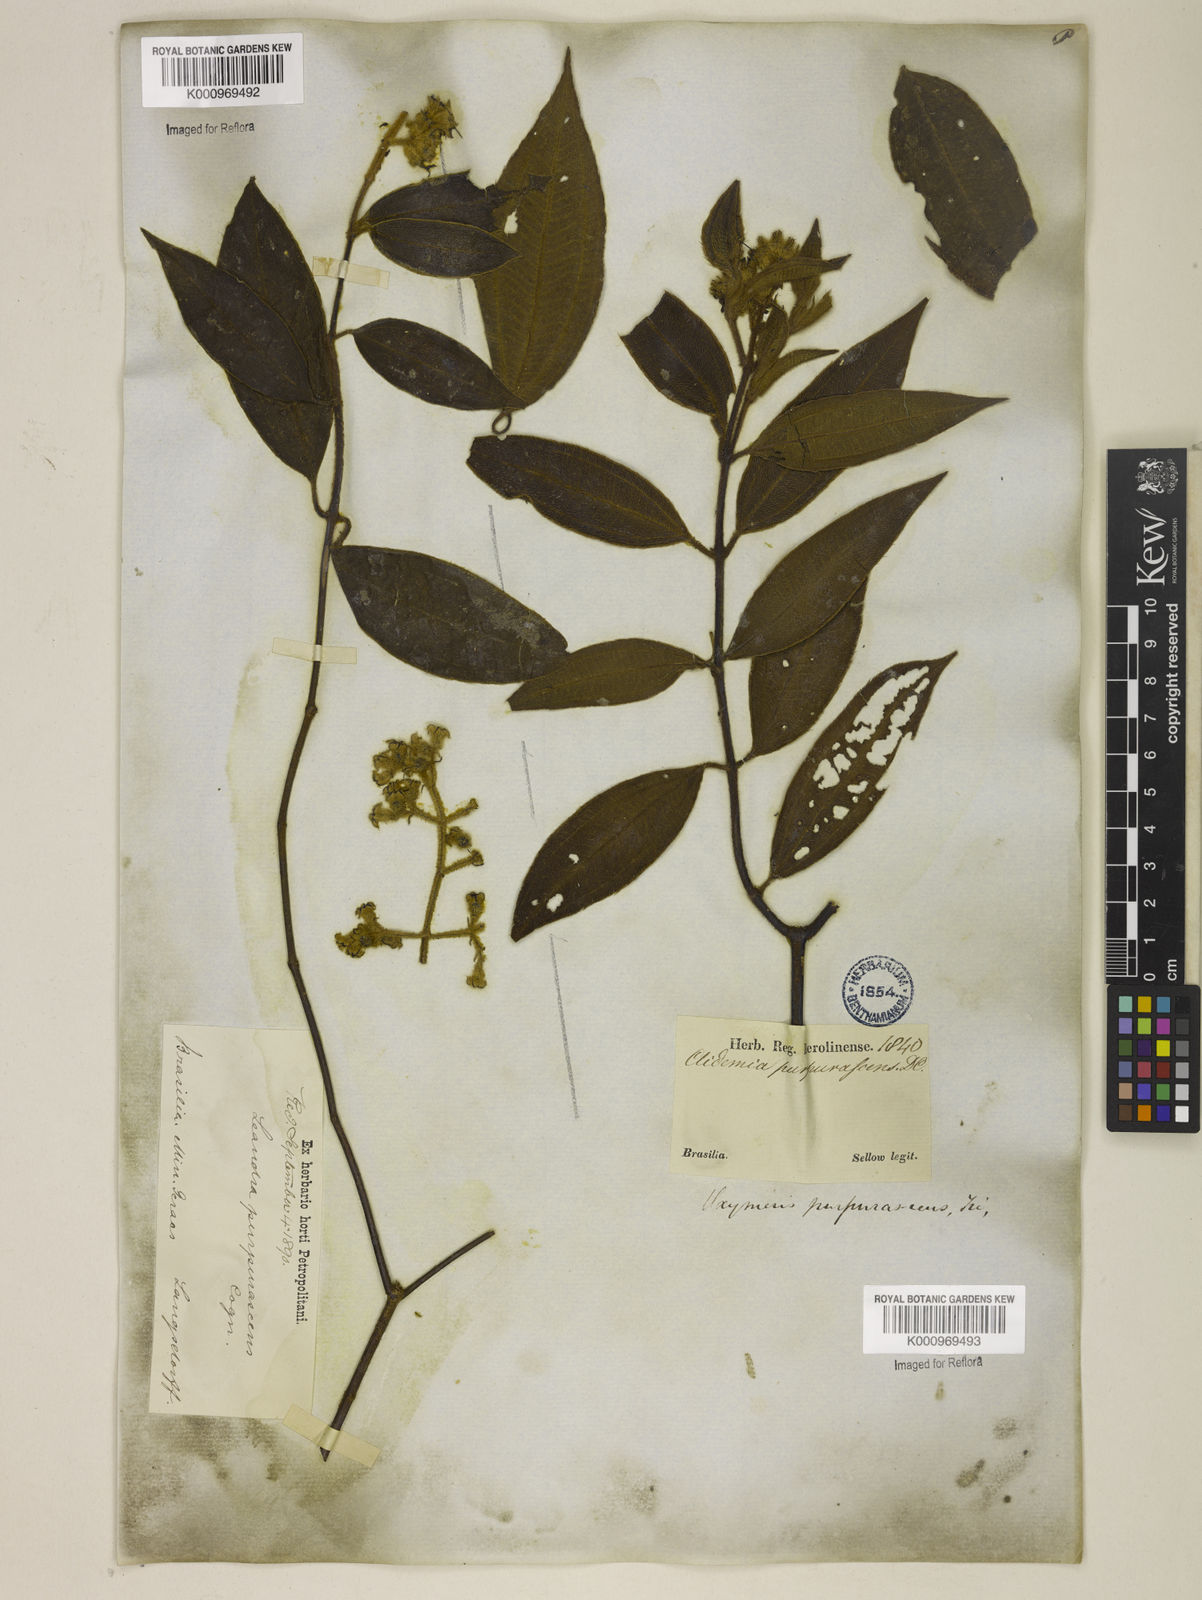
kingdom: Plantae
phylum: Tracheophyta
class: Magnoliopsida
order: Myrtales
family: Melastomataceae
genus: Miconia
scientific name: Miconia microstachya
